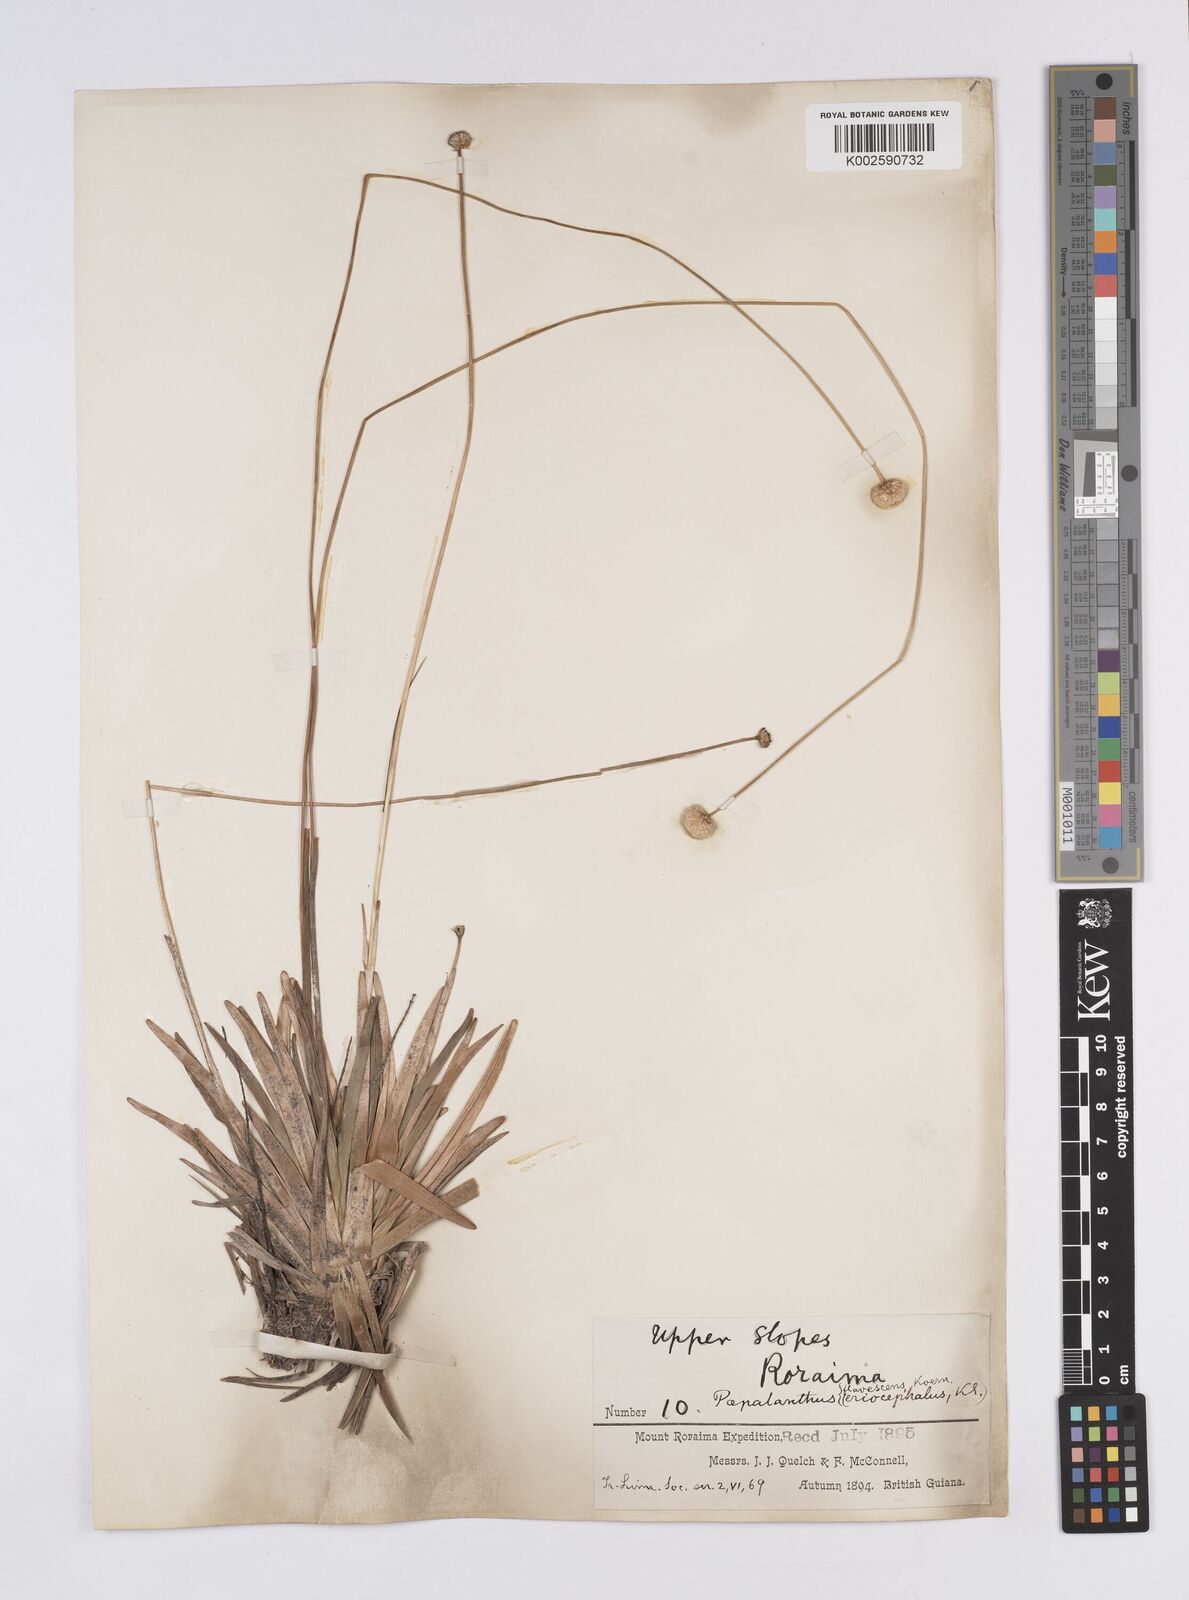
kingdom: Plantae
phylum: Tracheophyta
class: Liliopsida
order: Poales
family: Eriocaulaceae
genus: Leiothrix
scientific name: Leiothrix flavescens
